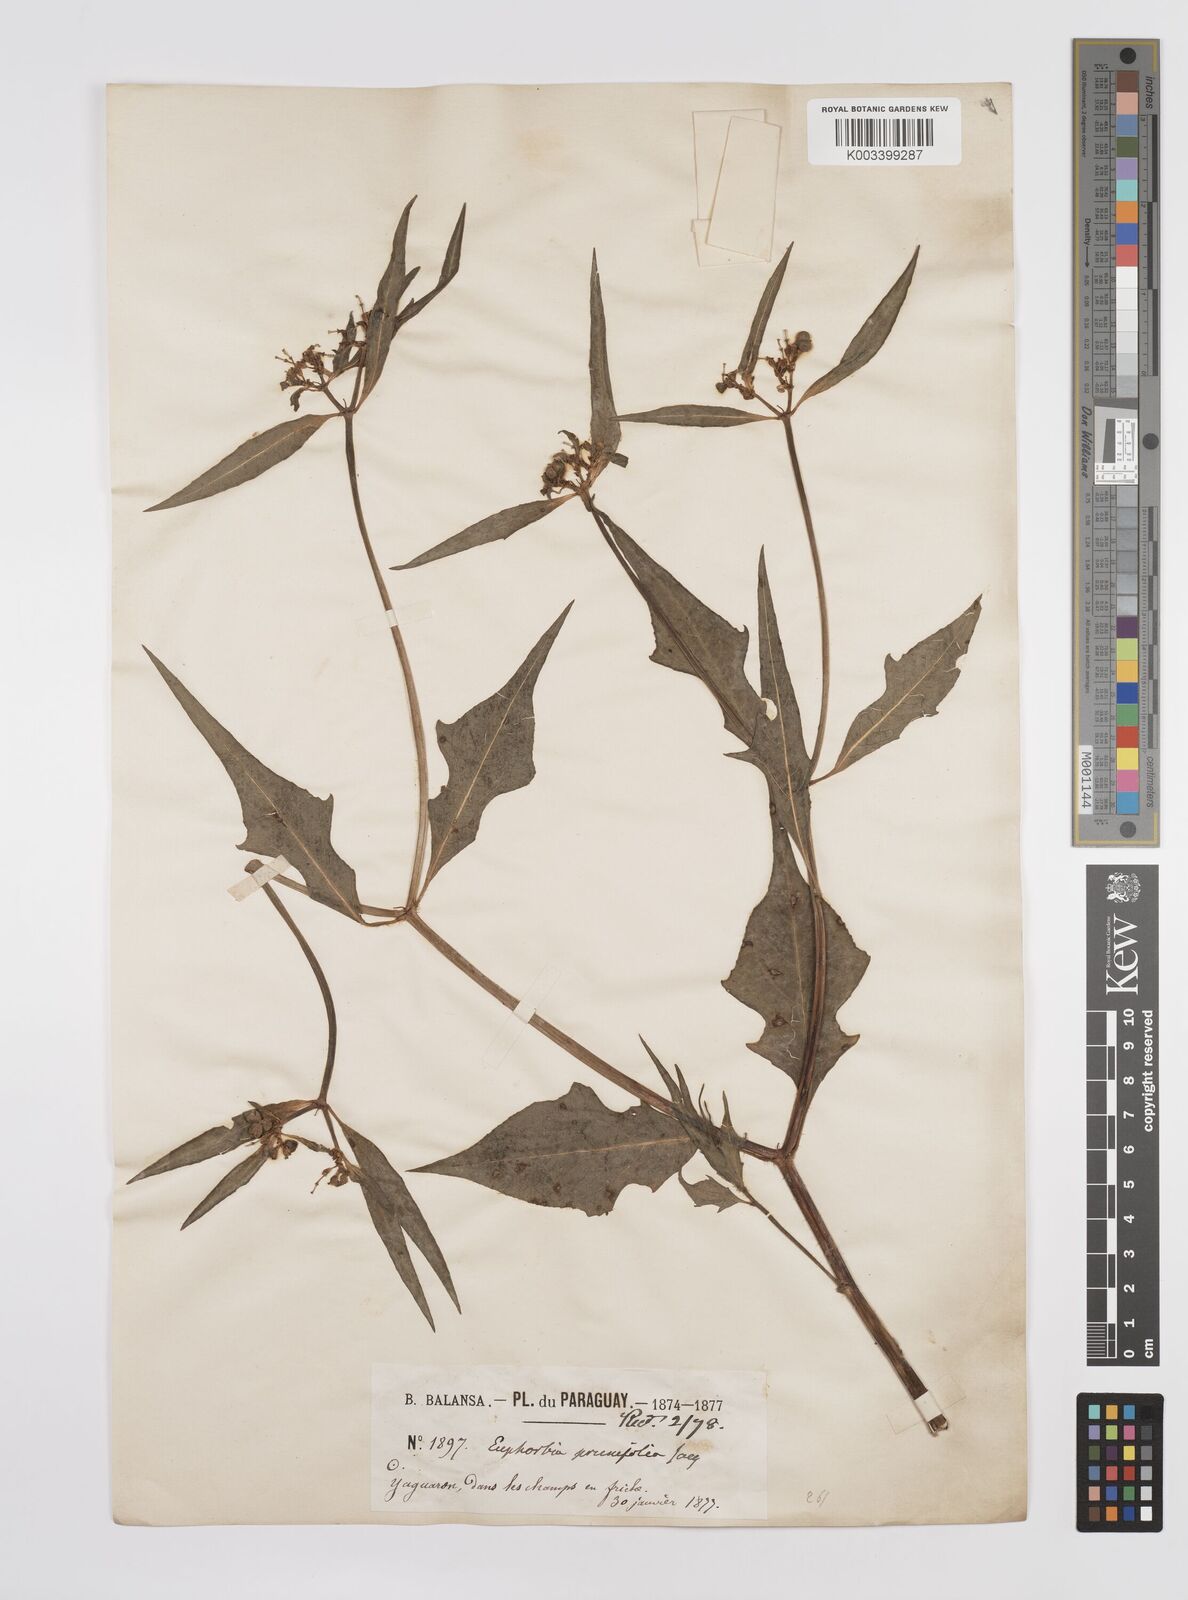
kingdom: Plantae
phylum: Tracheophyta
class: Magnoliopsida
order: Malpighiales
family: Euphorbiaceae
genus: Euphorbia
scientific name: Euphorbia heterophylla
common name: Mexican fireplant
